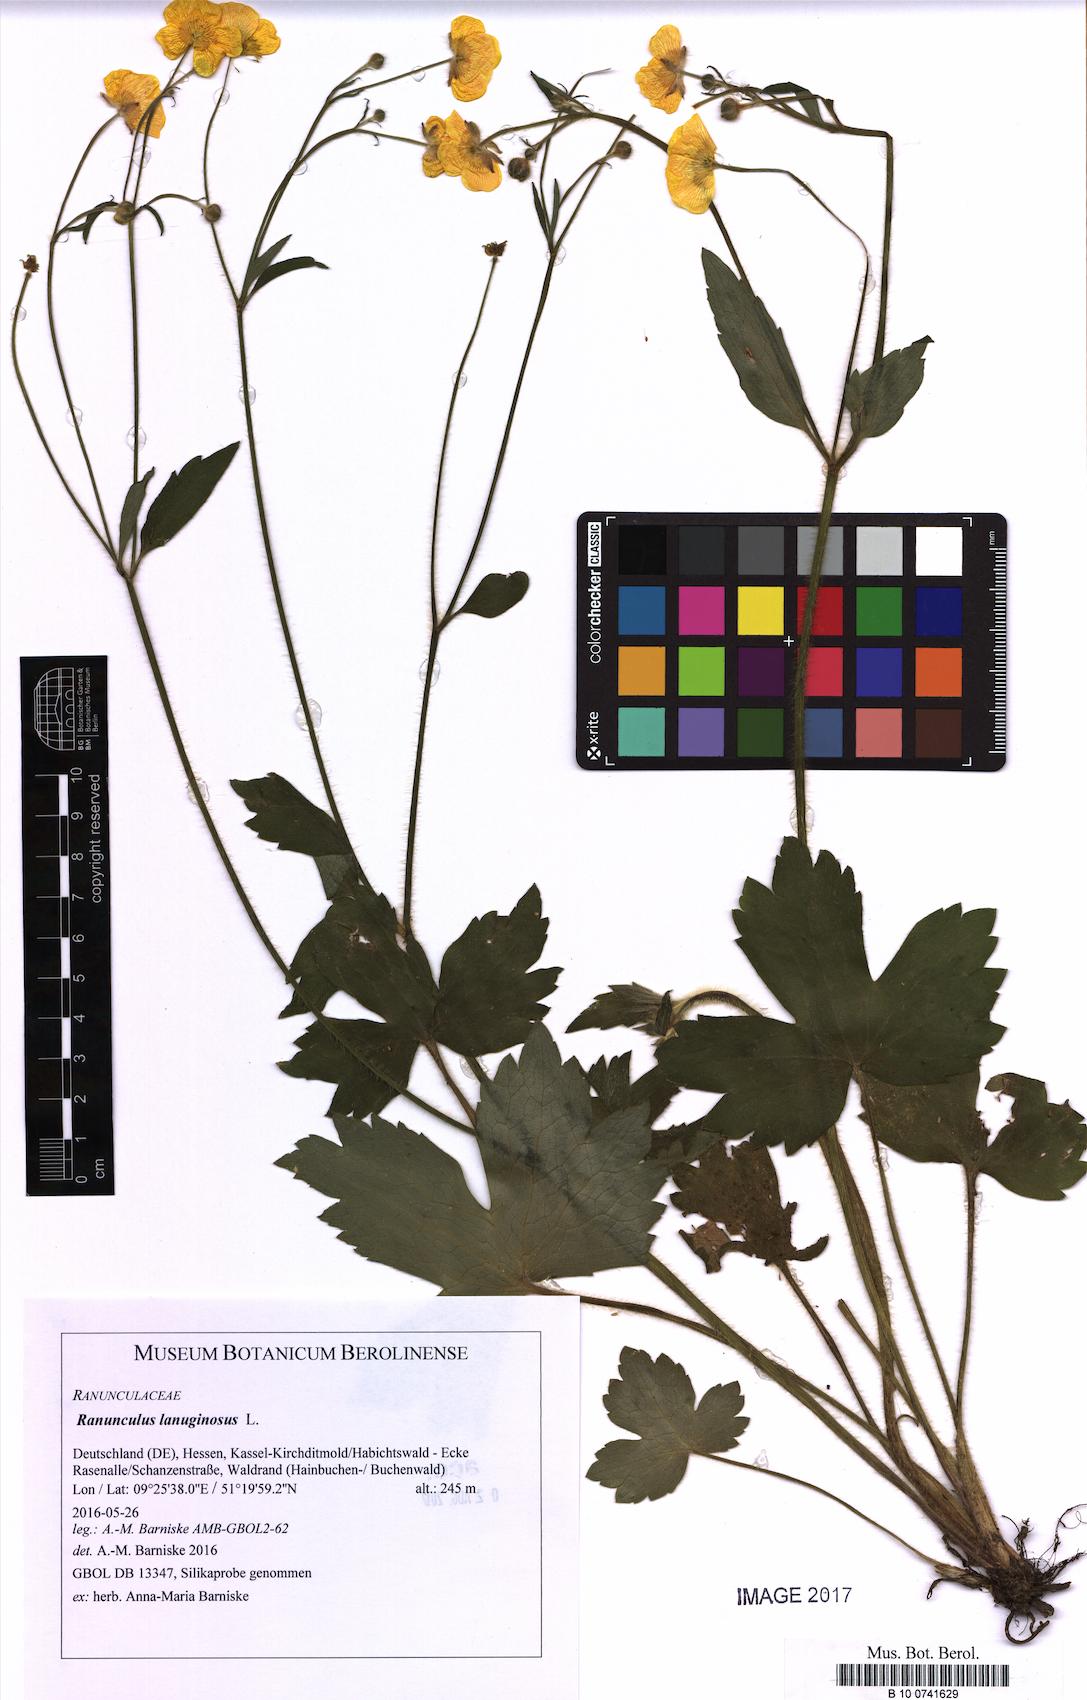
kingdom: Plantae
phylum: Tracheophyta
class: Magnoliopsida
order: Ranunculales
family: Ranunculaceae
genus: Ranunculus
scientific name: Ranunculus lanuginosus
